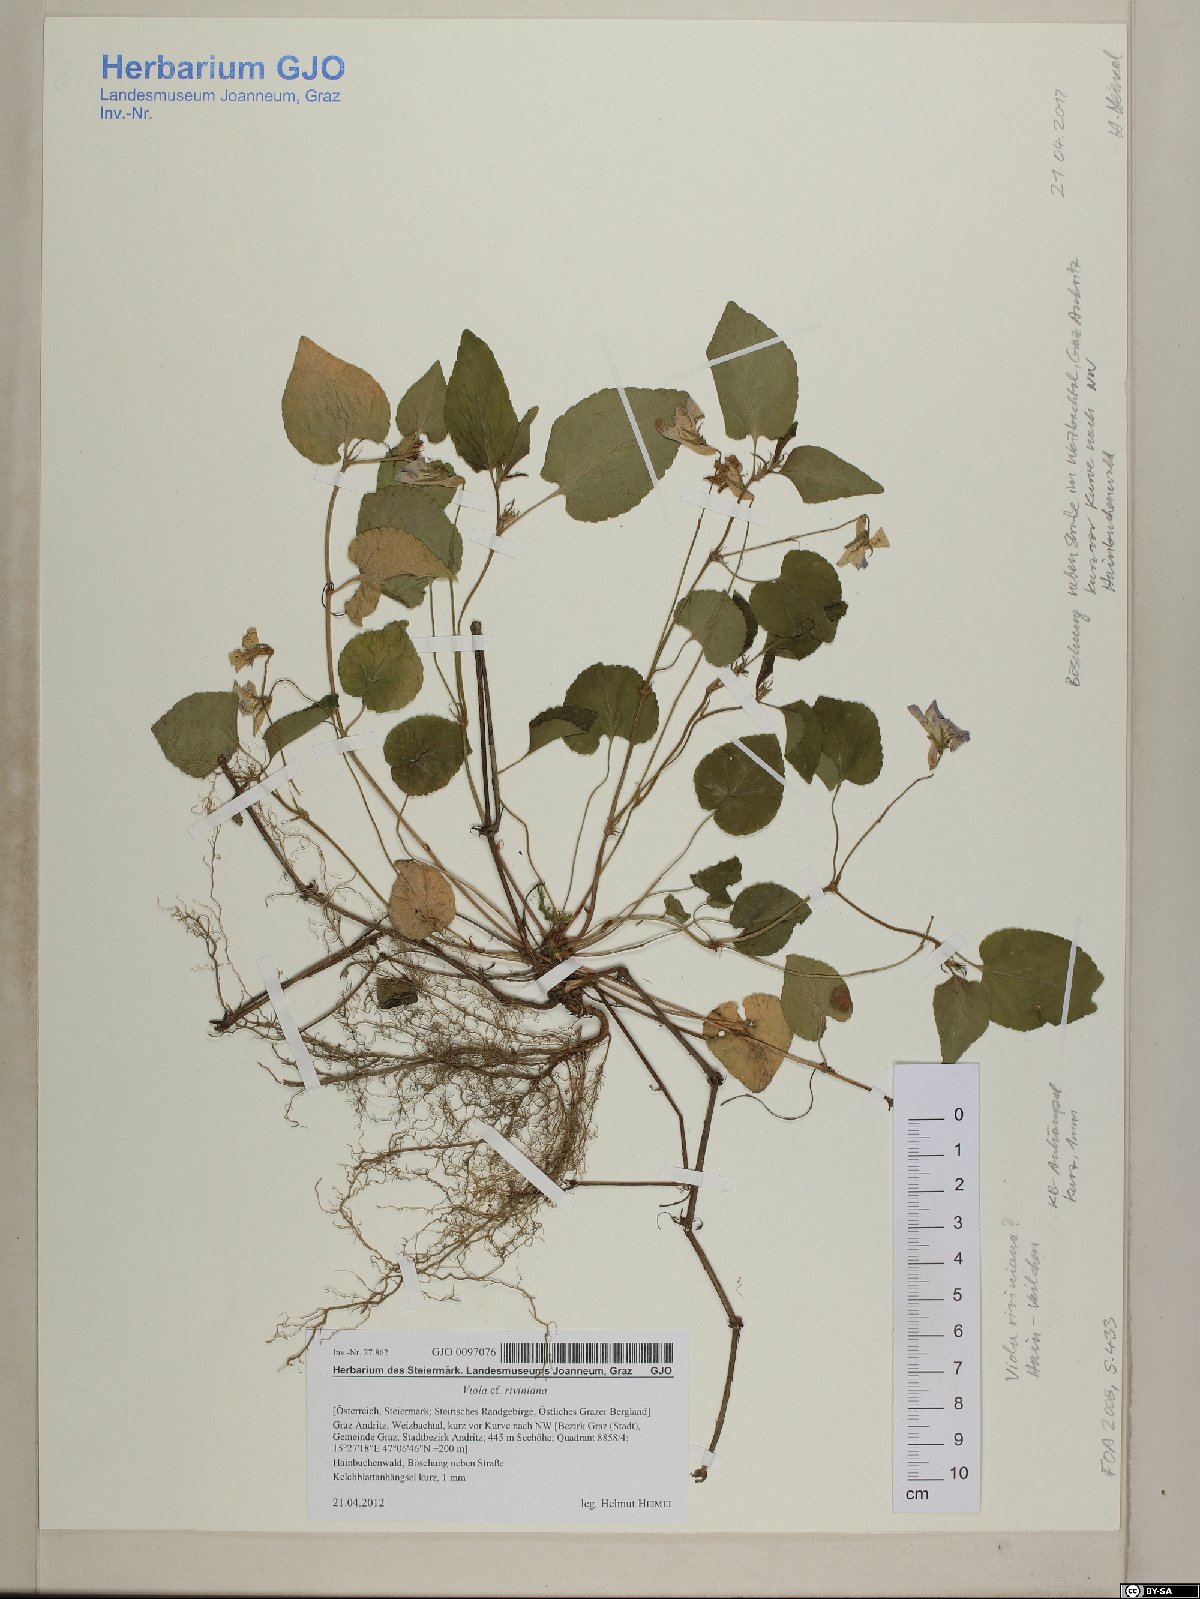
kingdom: Plantae
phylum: Tracheophyta
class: Magnoliopsida
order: Malpighiales
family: Violaceae
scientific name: Violaceae
